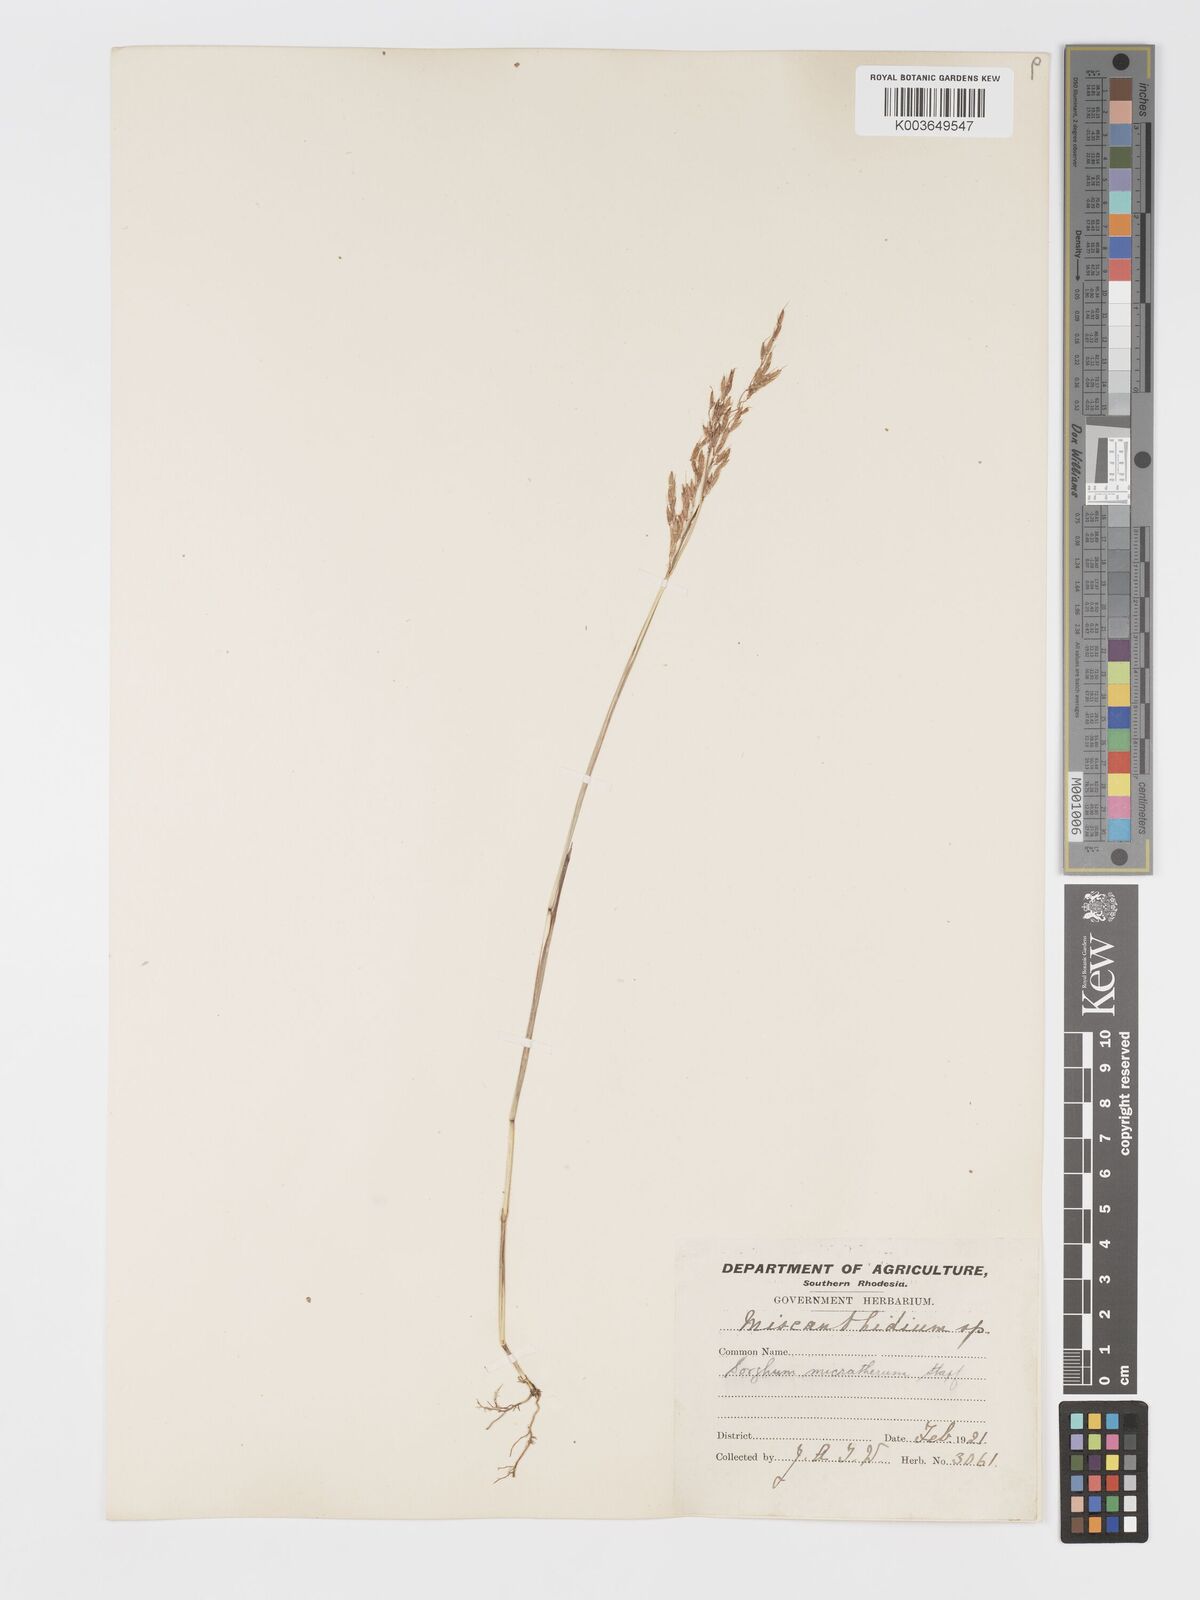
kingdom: Plantae
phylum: Tracheophyta
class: Liliopsida
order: Poales
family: Poaceae
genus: Sorghastrum
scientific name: Sorghastrum nudipes
